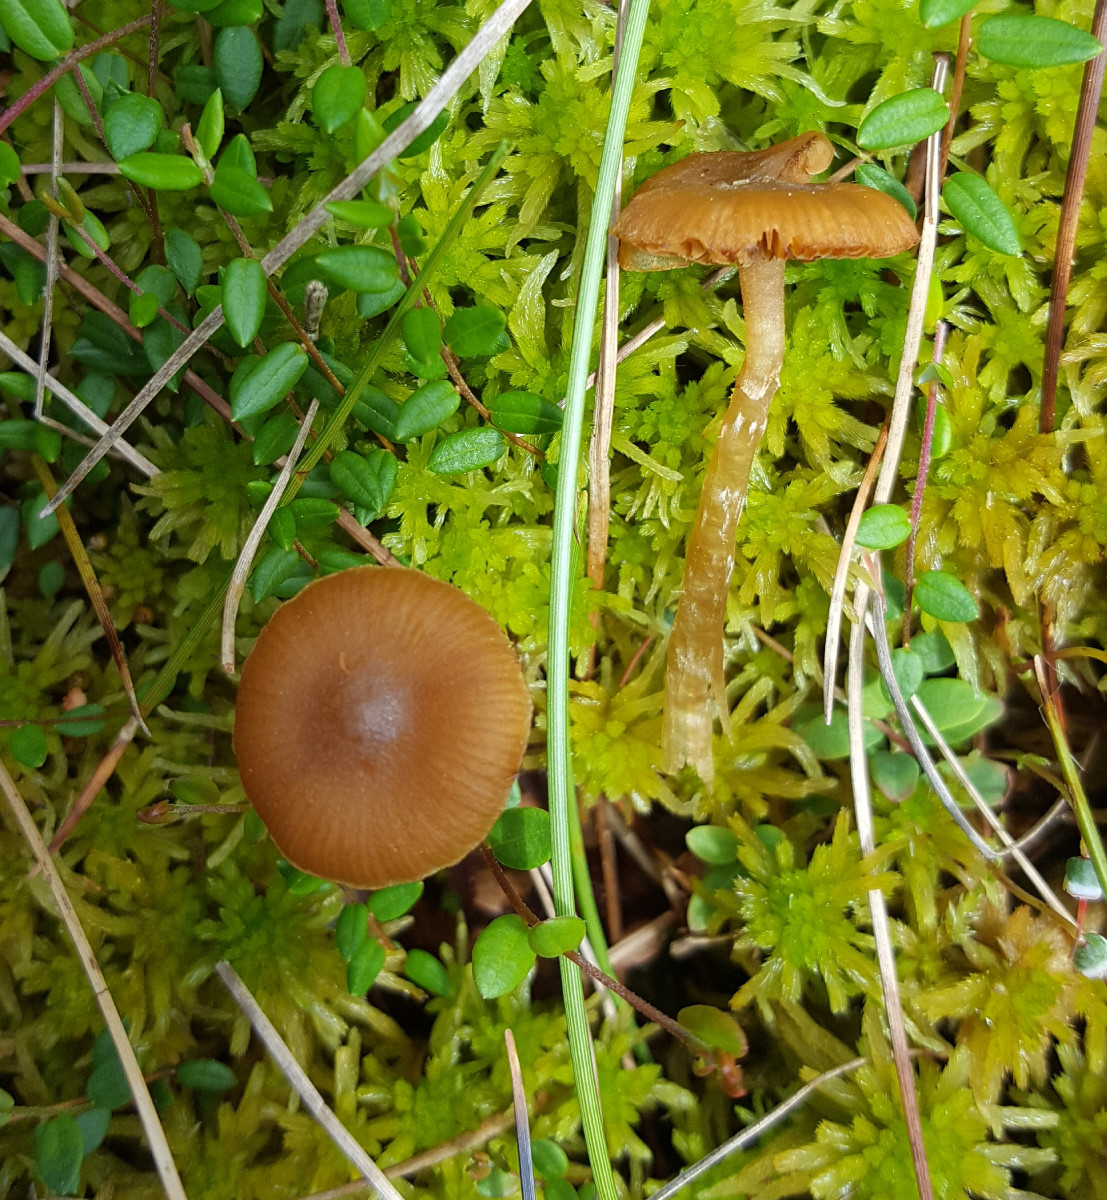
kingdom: Fungi
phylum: Basidiomycota
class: Agaricomycetes
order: Agaricales
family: Hymenogastraceae
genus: Galerina
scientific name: Galerina paludosa
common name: mose-hjelmhat
